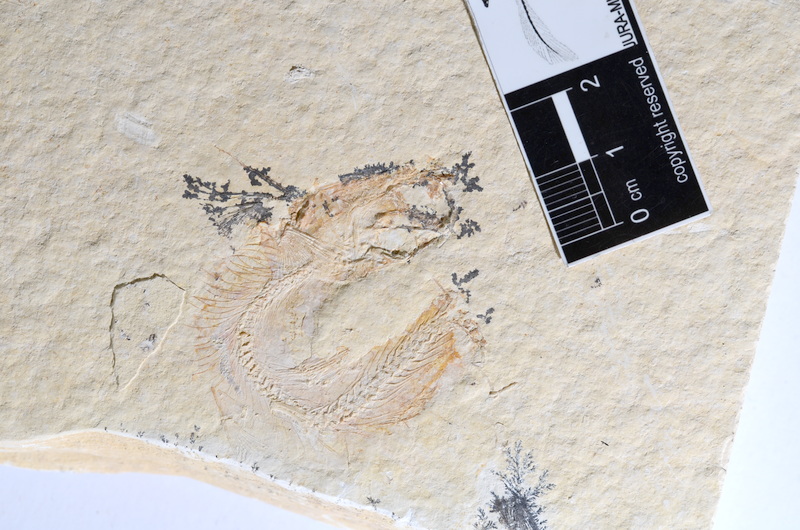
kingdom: Animalia
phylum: Chordata
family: Ascalaboidae
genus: Tharsis
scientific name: Tharsis dubius
